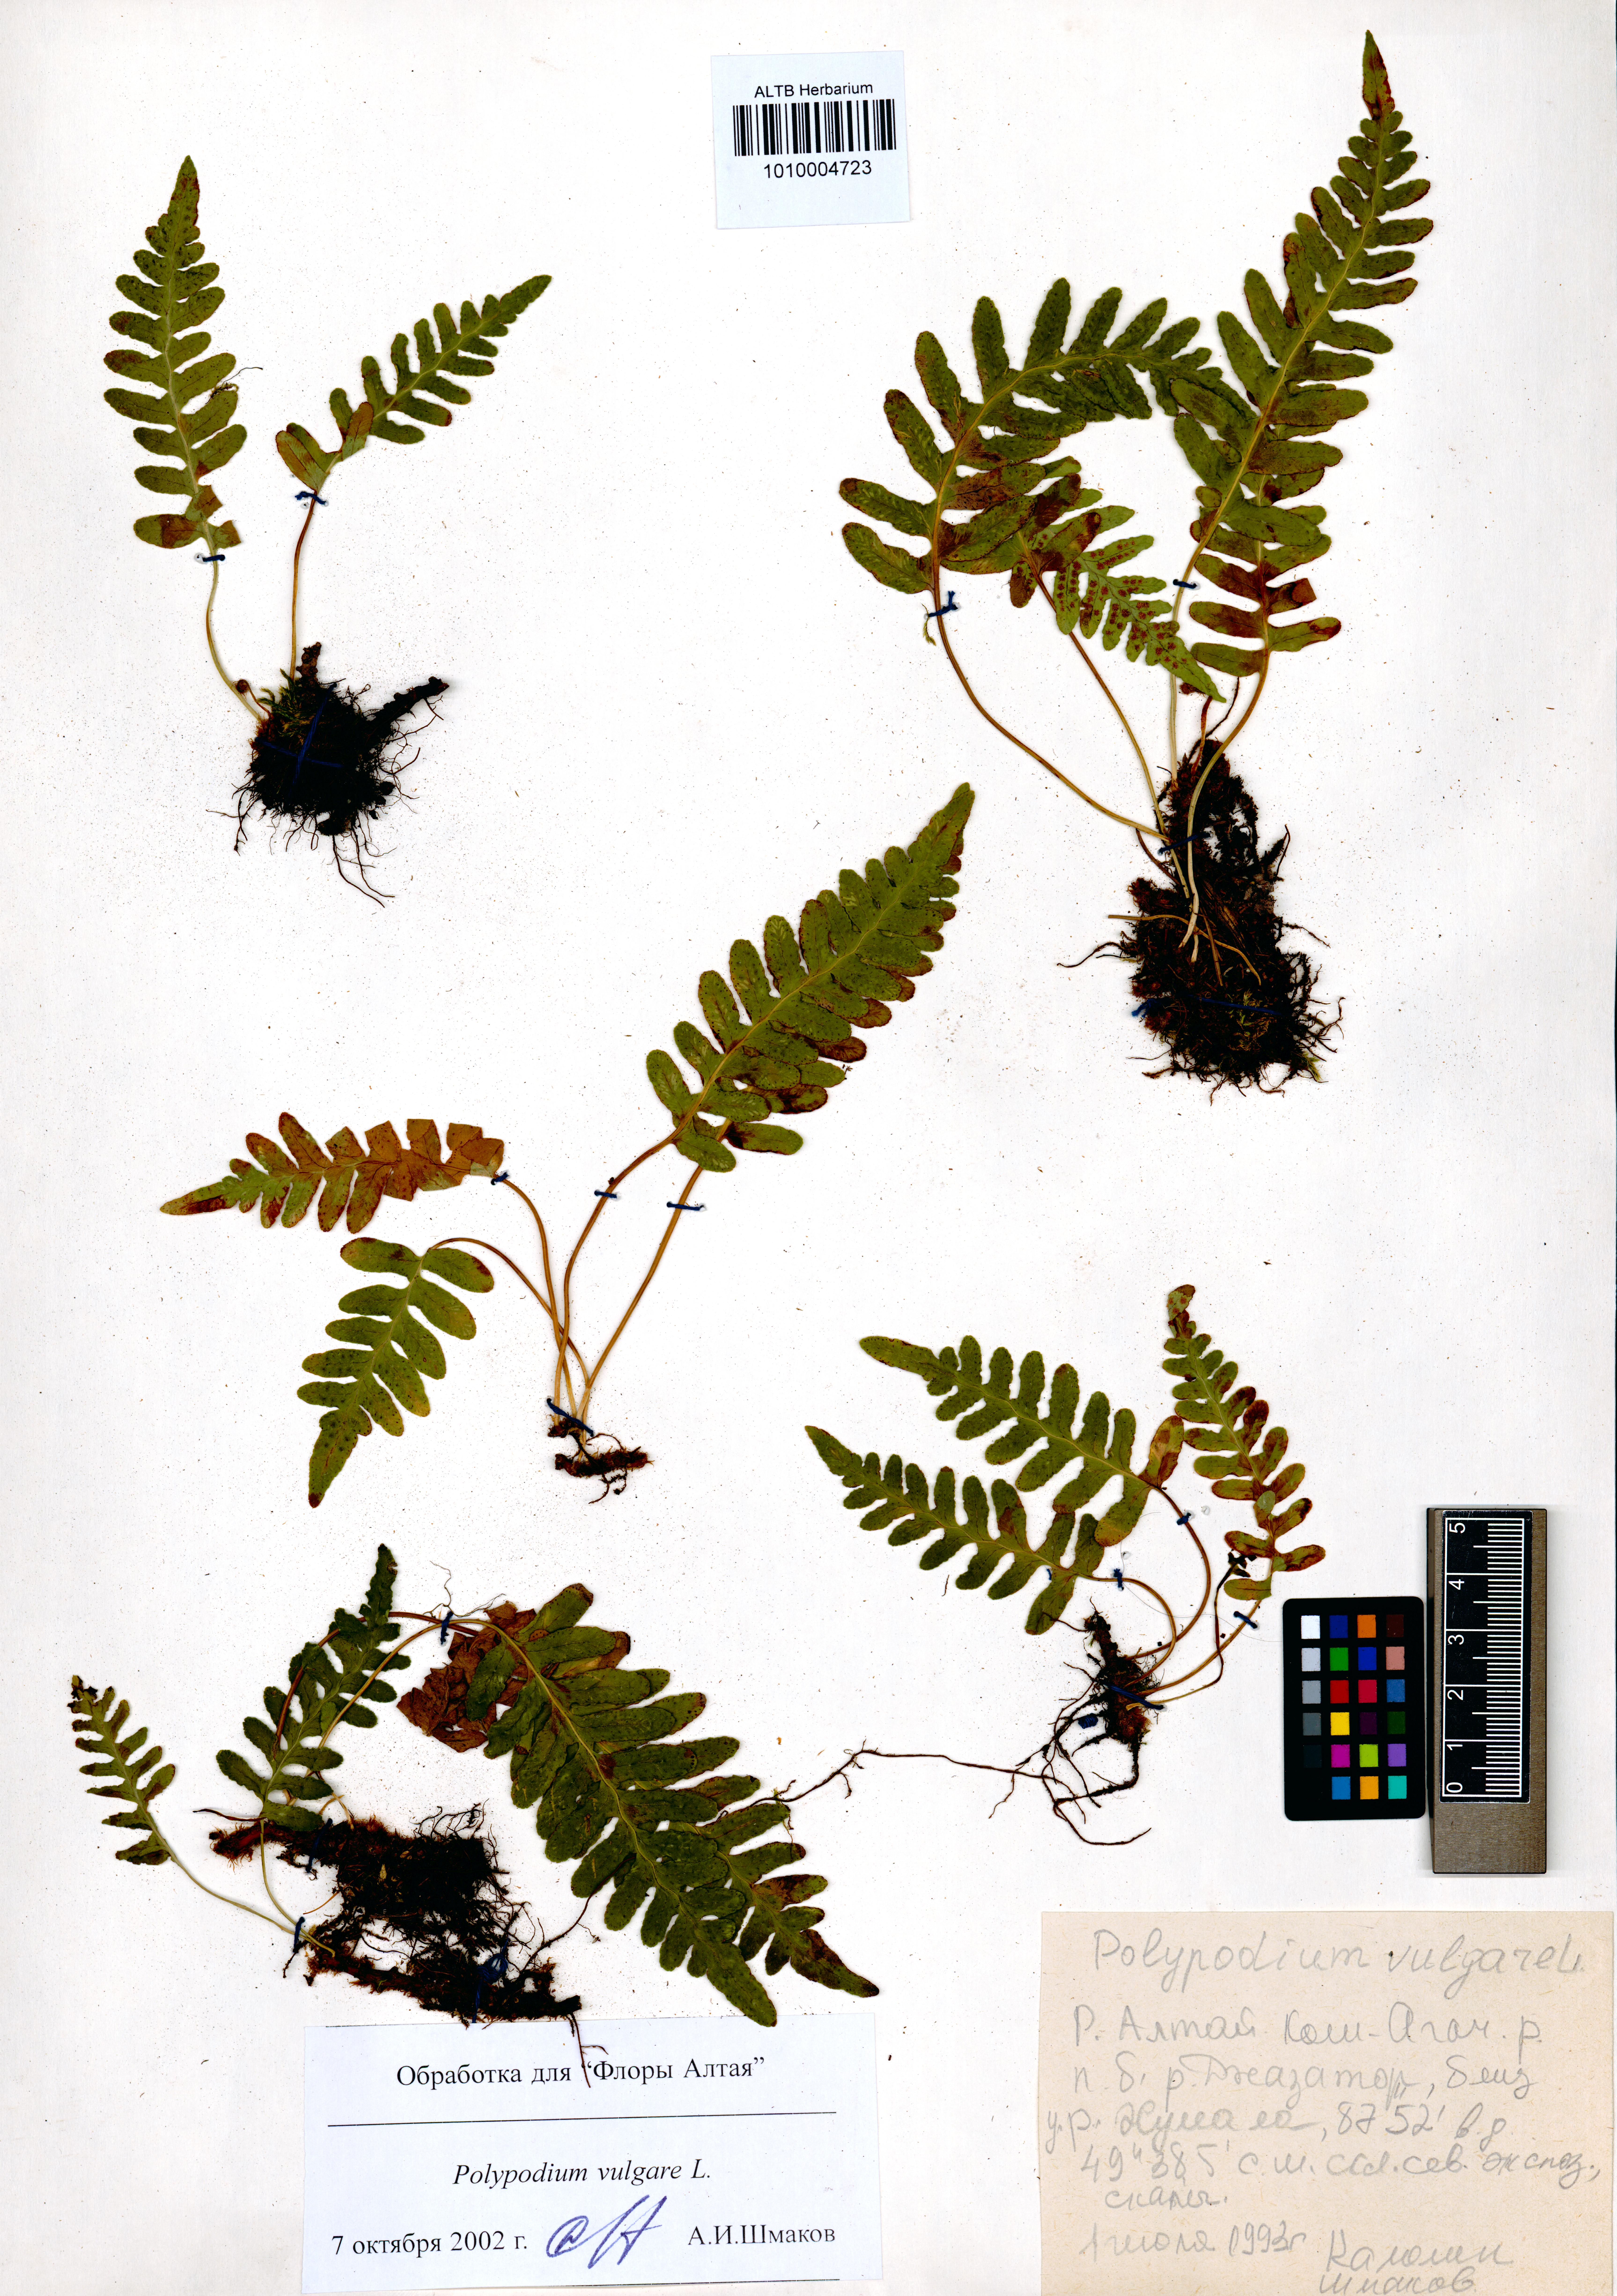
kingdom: Plantae
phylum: Tracheophyta
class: Polypodiopsida
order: Polypodiales
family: Polypodiaceae
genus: Polypodium
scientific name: Polypodium vulgare
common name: Common polypody
